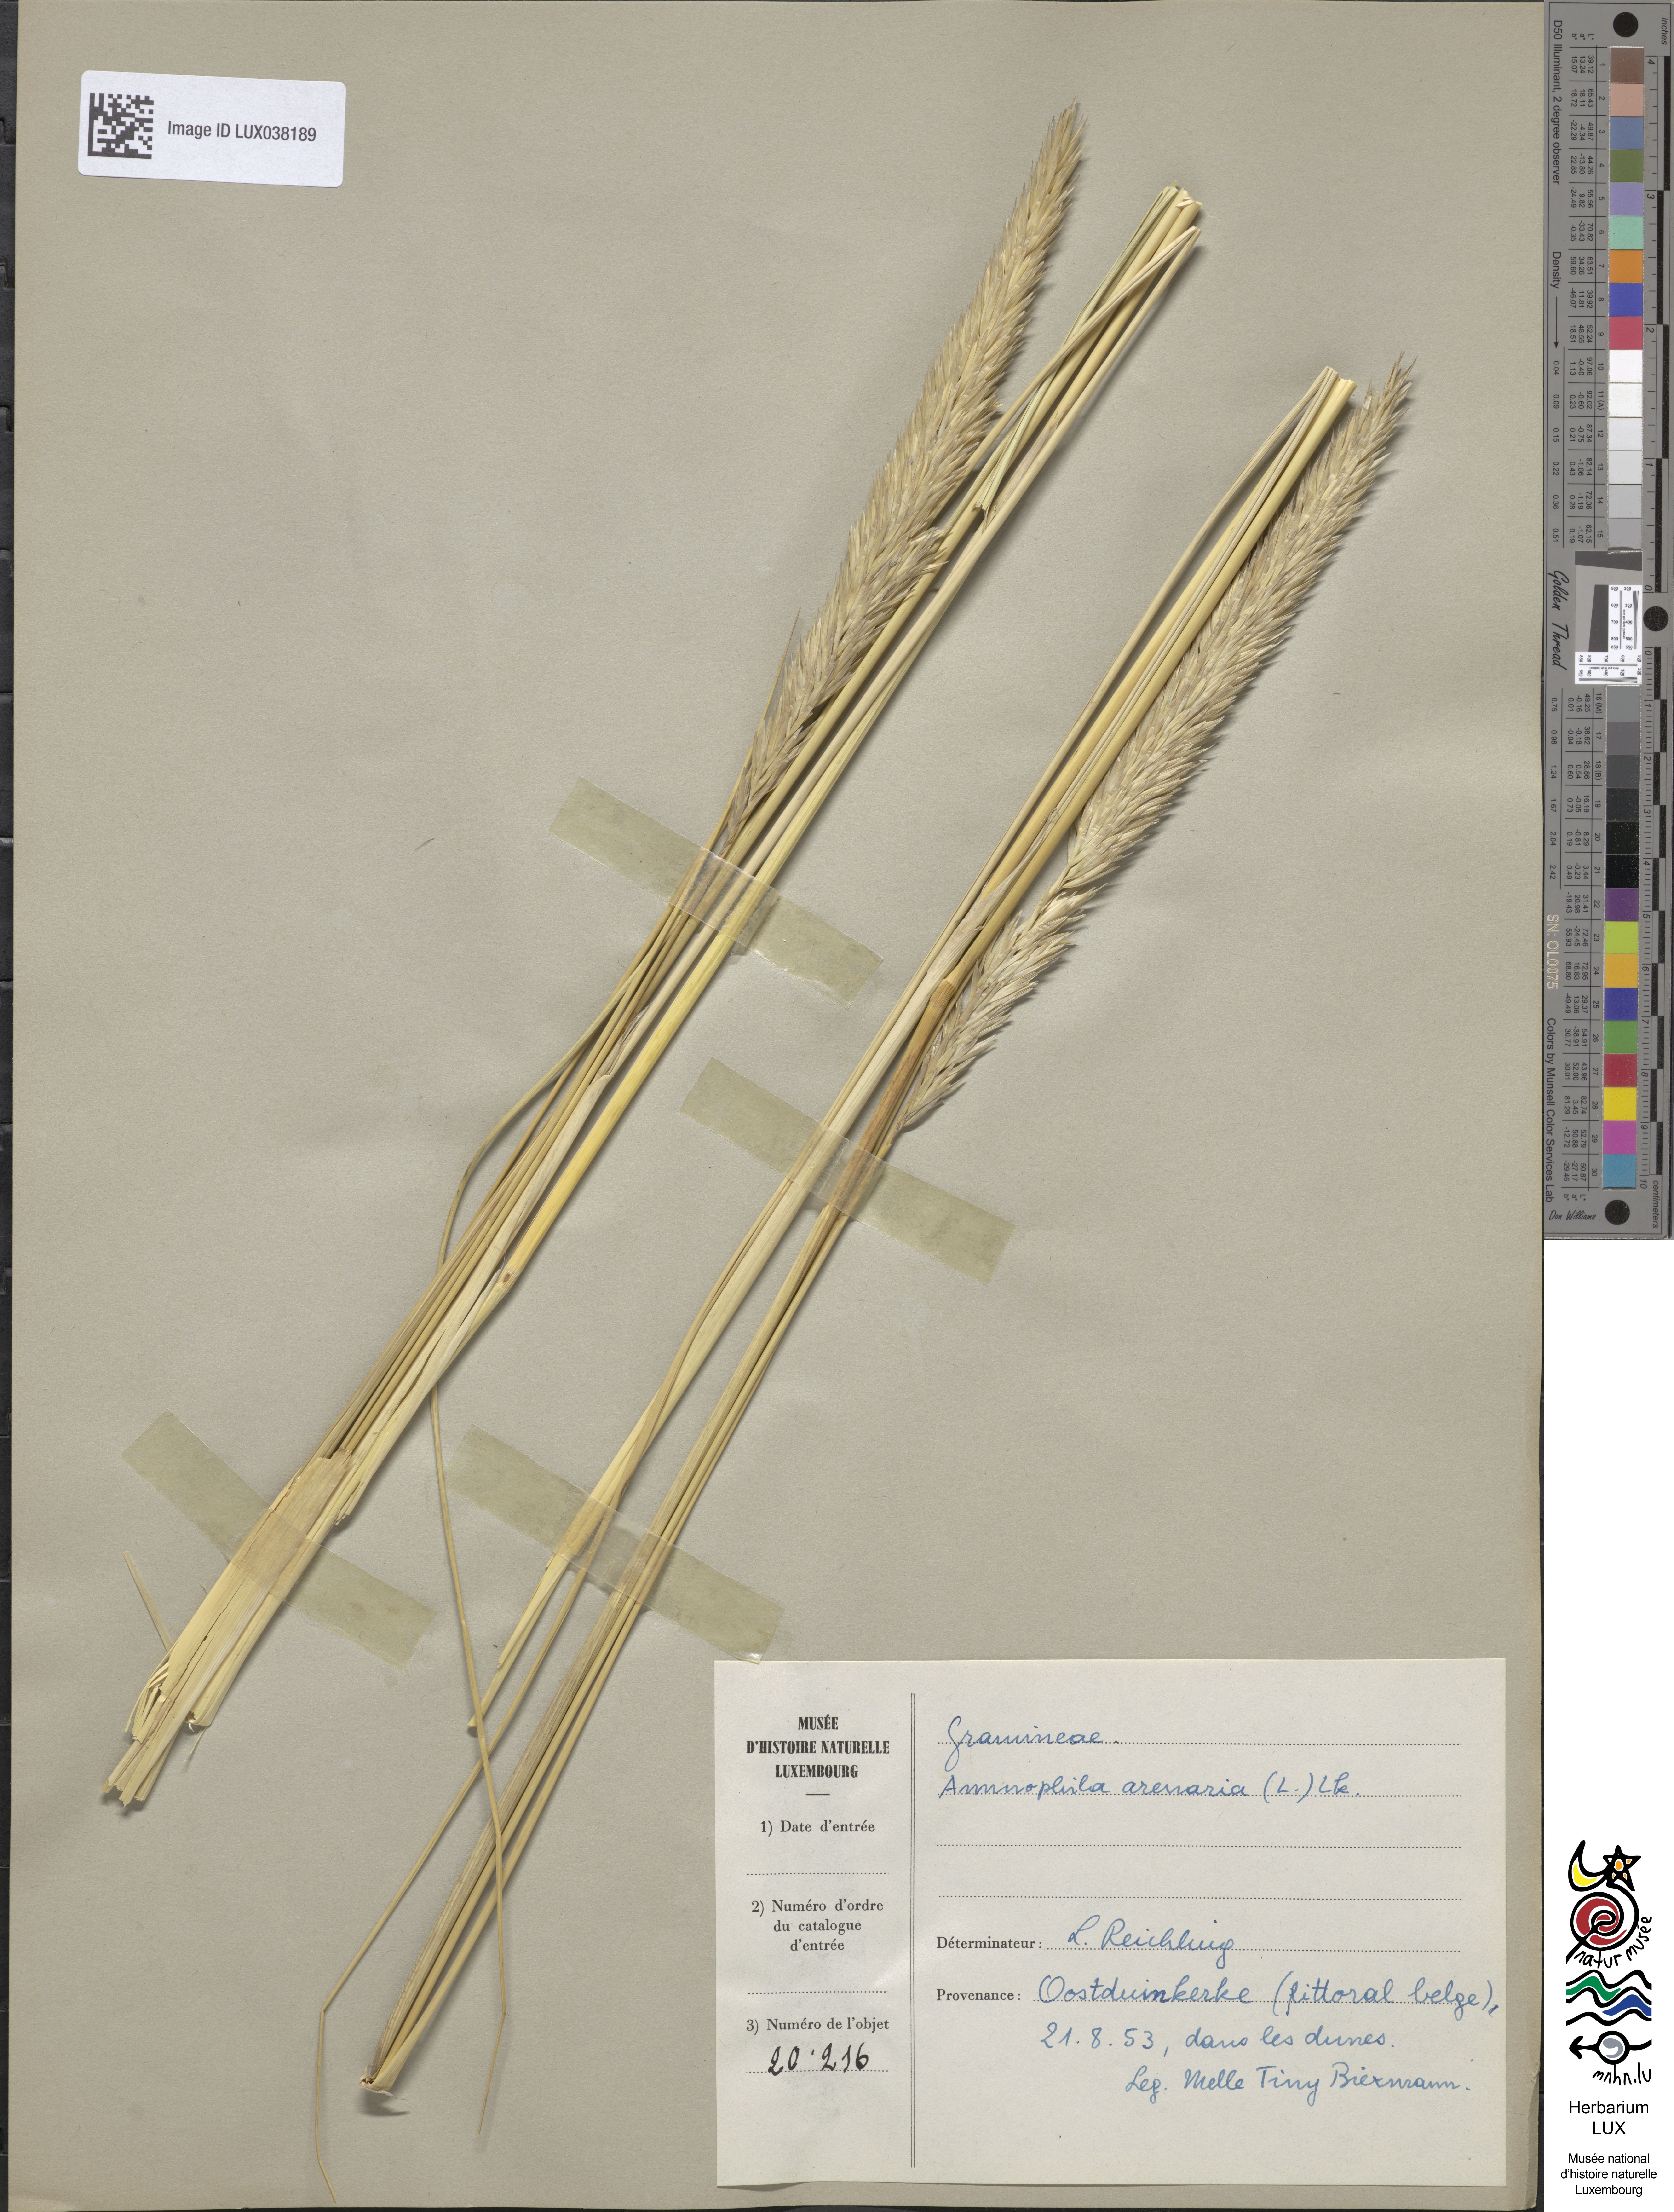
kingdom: Plantae
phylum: Tracheophyta
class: Liliopsida
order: Poales
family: Poaceae
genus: Calamagrostis
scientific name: Calamagrostis arenaria
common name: European beachgrass
